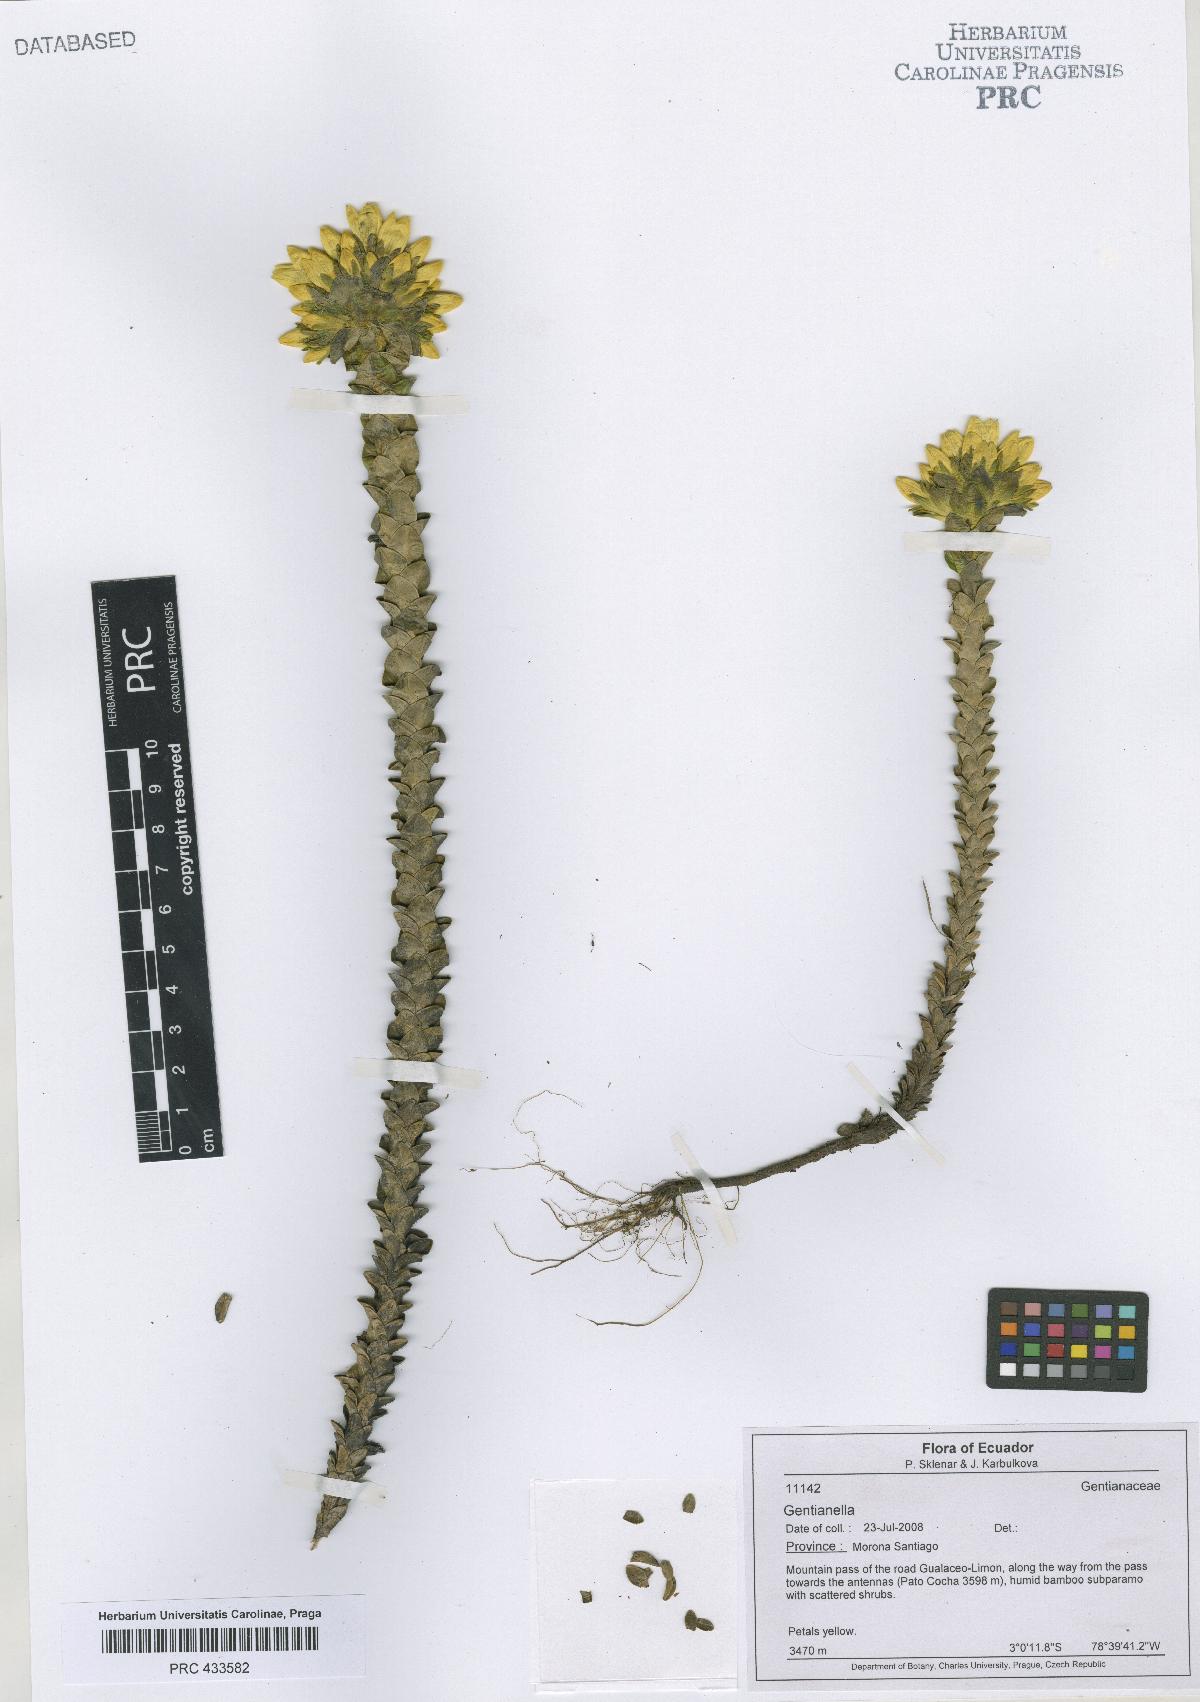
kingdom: Plantae
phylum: Tracheophyta
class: Magnoliopsida
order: Gentianales
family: Gentianaceae
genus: Gentianella
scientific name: Gentianella
